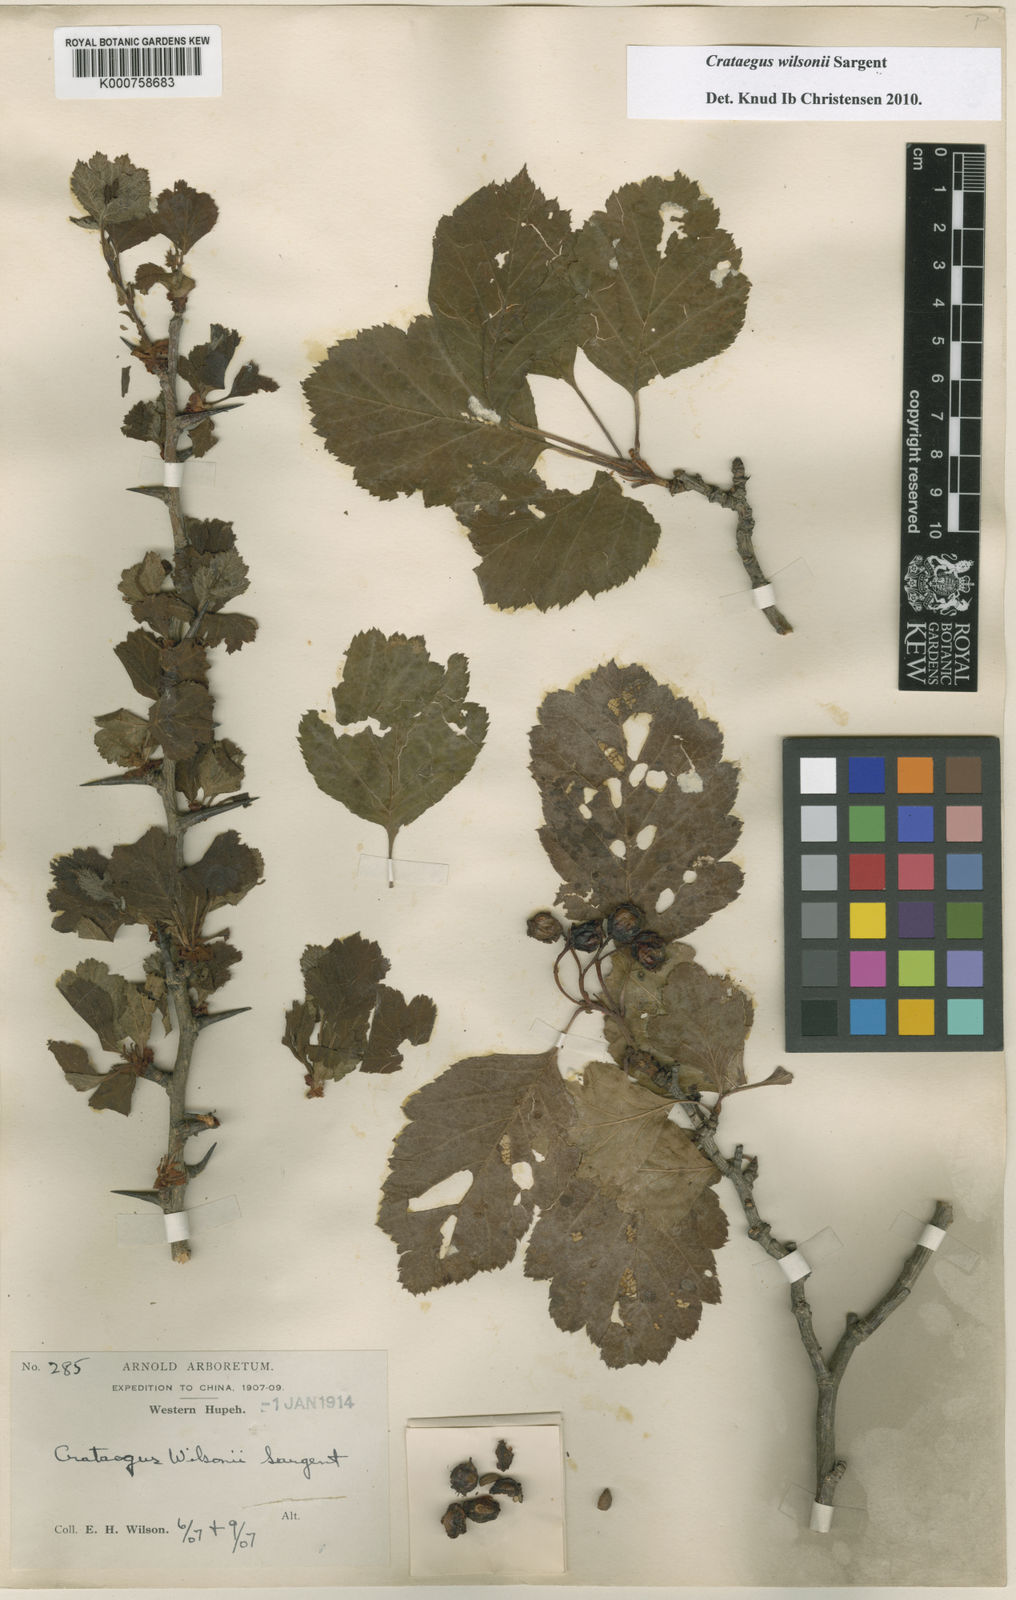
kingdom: Plantae
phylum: Tracheophyta
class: Magnoliopsida
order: Rosales
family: Rosaceae
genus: Crataegus
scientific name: Crataegus wilsonii
